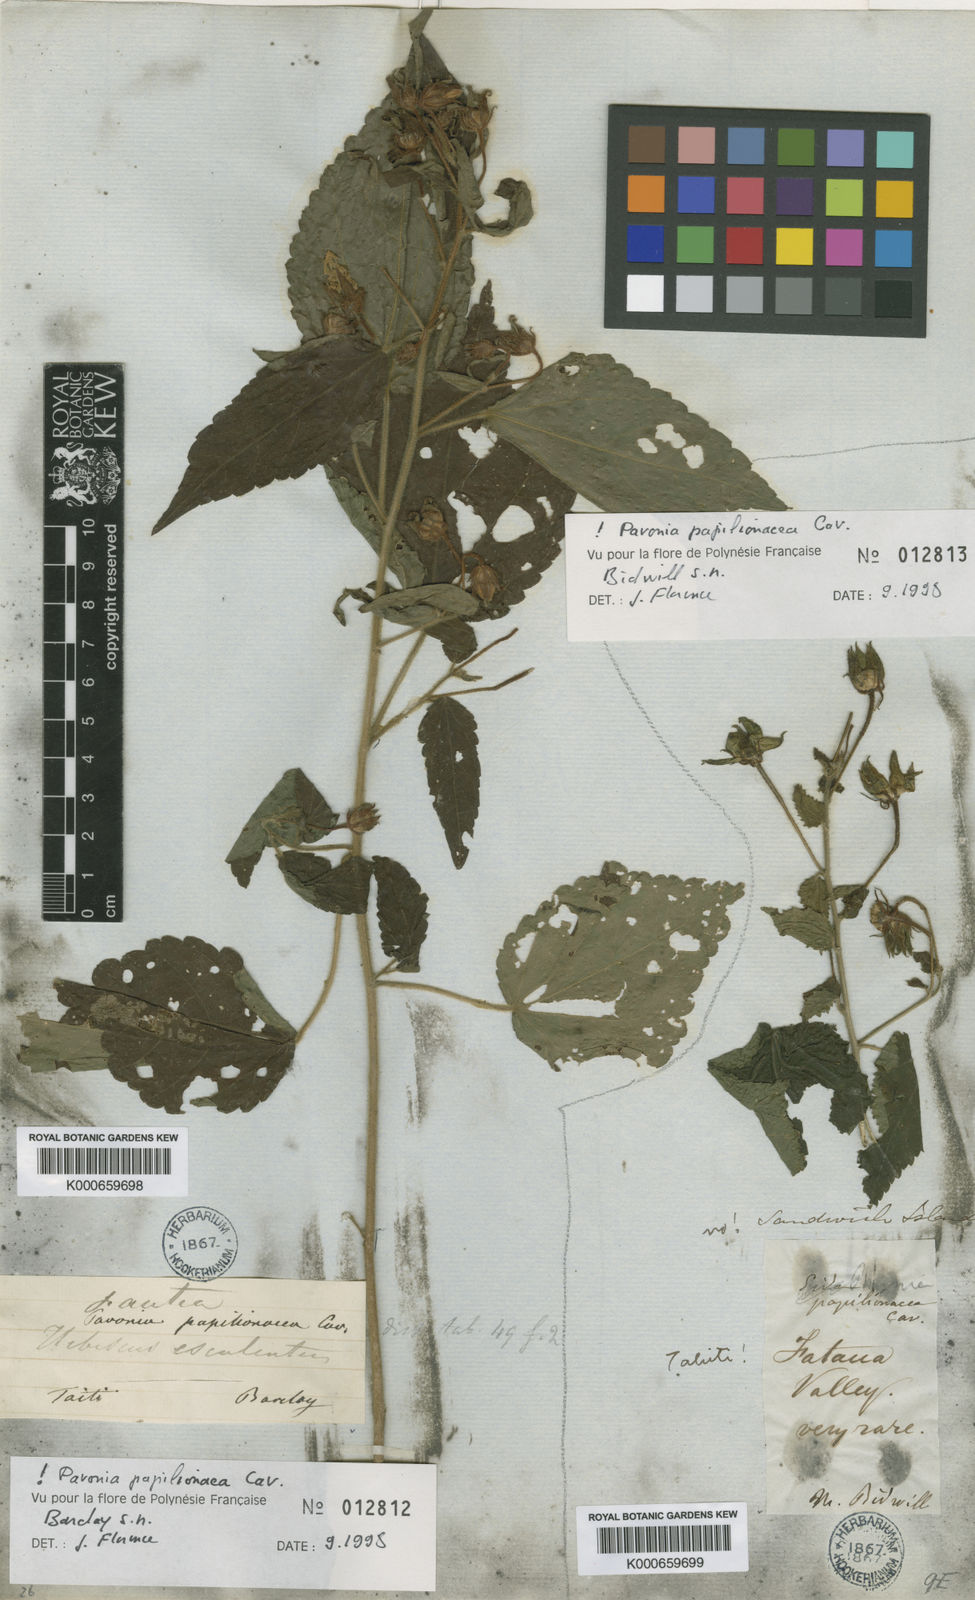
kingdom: Plantae
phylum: Tracheophyta
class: Magnoliopsida
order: Malvales
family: Malvaceae
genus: Pavonia
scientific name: Pavonia papilionacea
